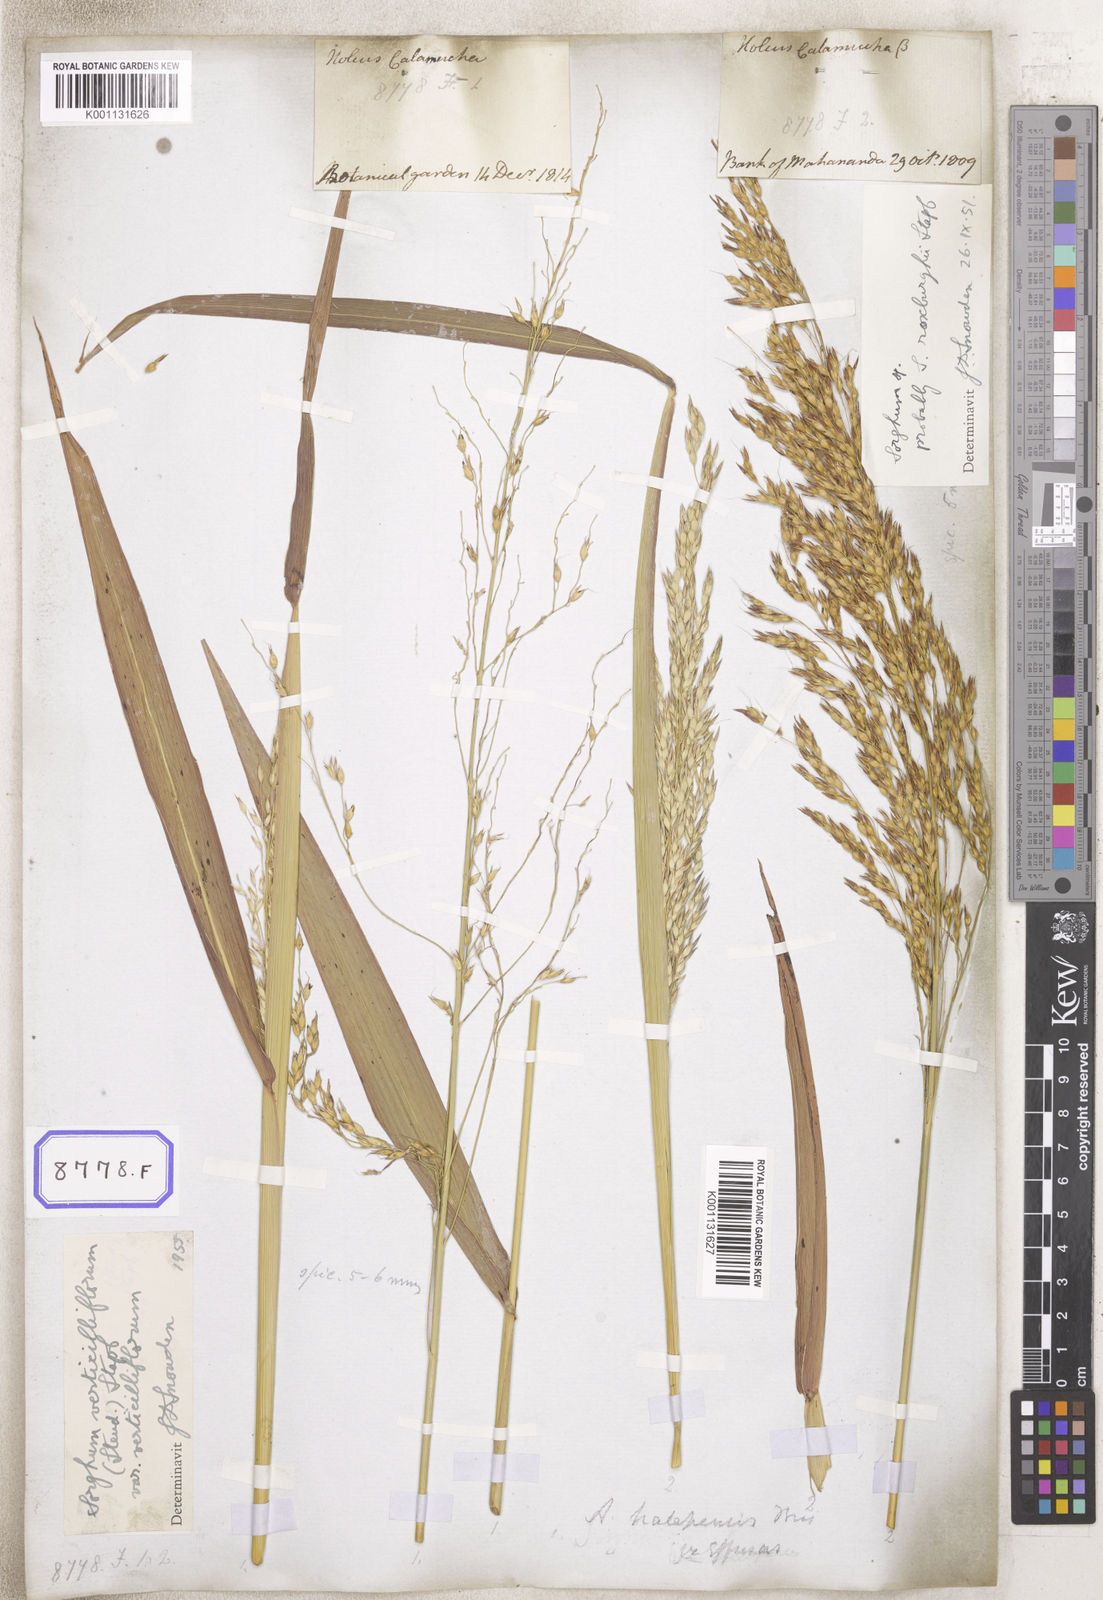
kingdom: Plantae
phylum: Tracheophyta
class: Liliopsida
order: Poales
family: Poaceae
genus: Sorghum
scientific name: Sorghum halepense
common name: Johnson-grass
